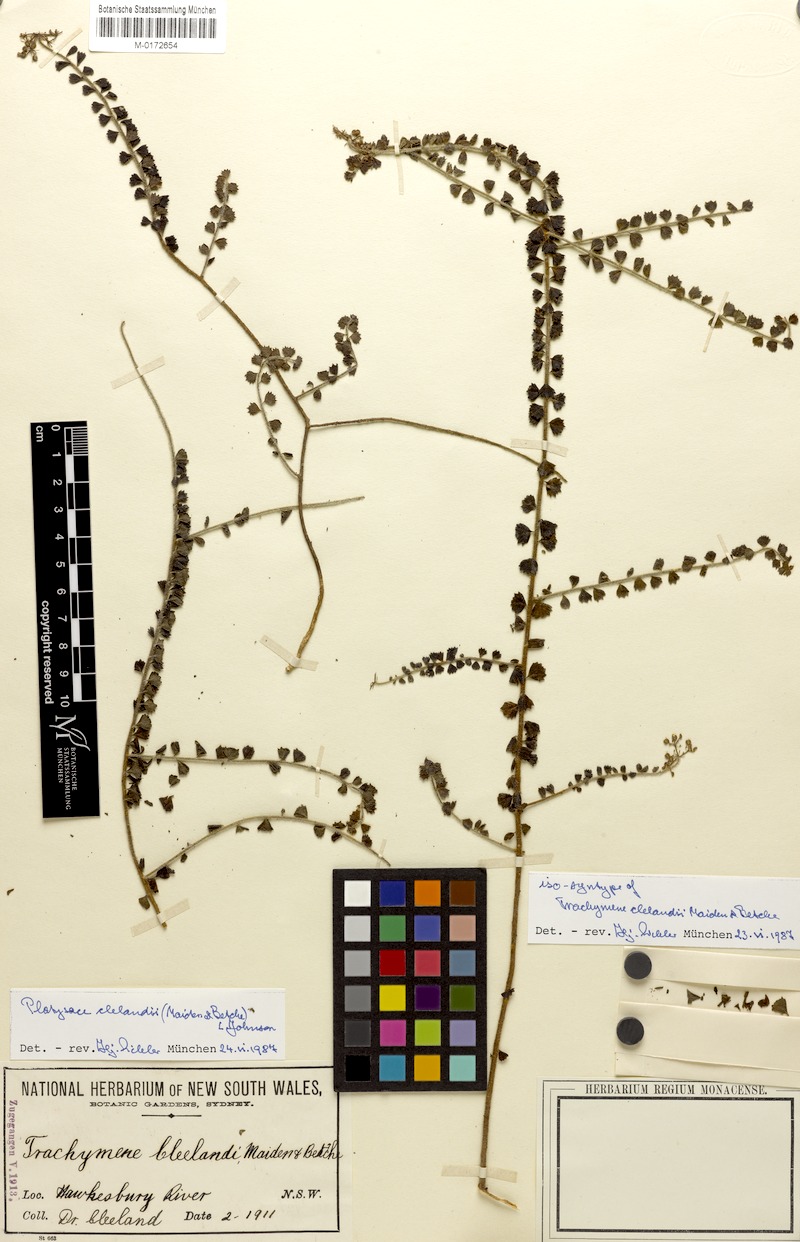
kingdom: Plantae
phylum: Tracheophyta
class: Magnoliopsida
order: Apiales
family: Apiaceae
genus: Platysace
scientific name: Platysace clelandii
